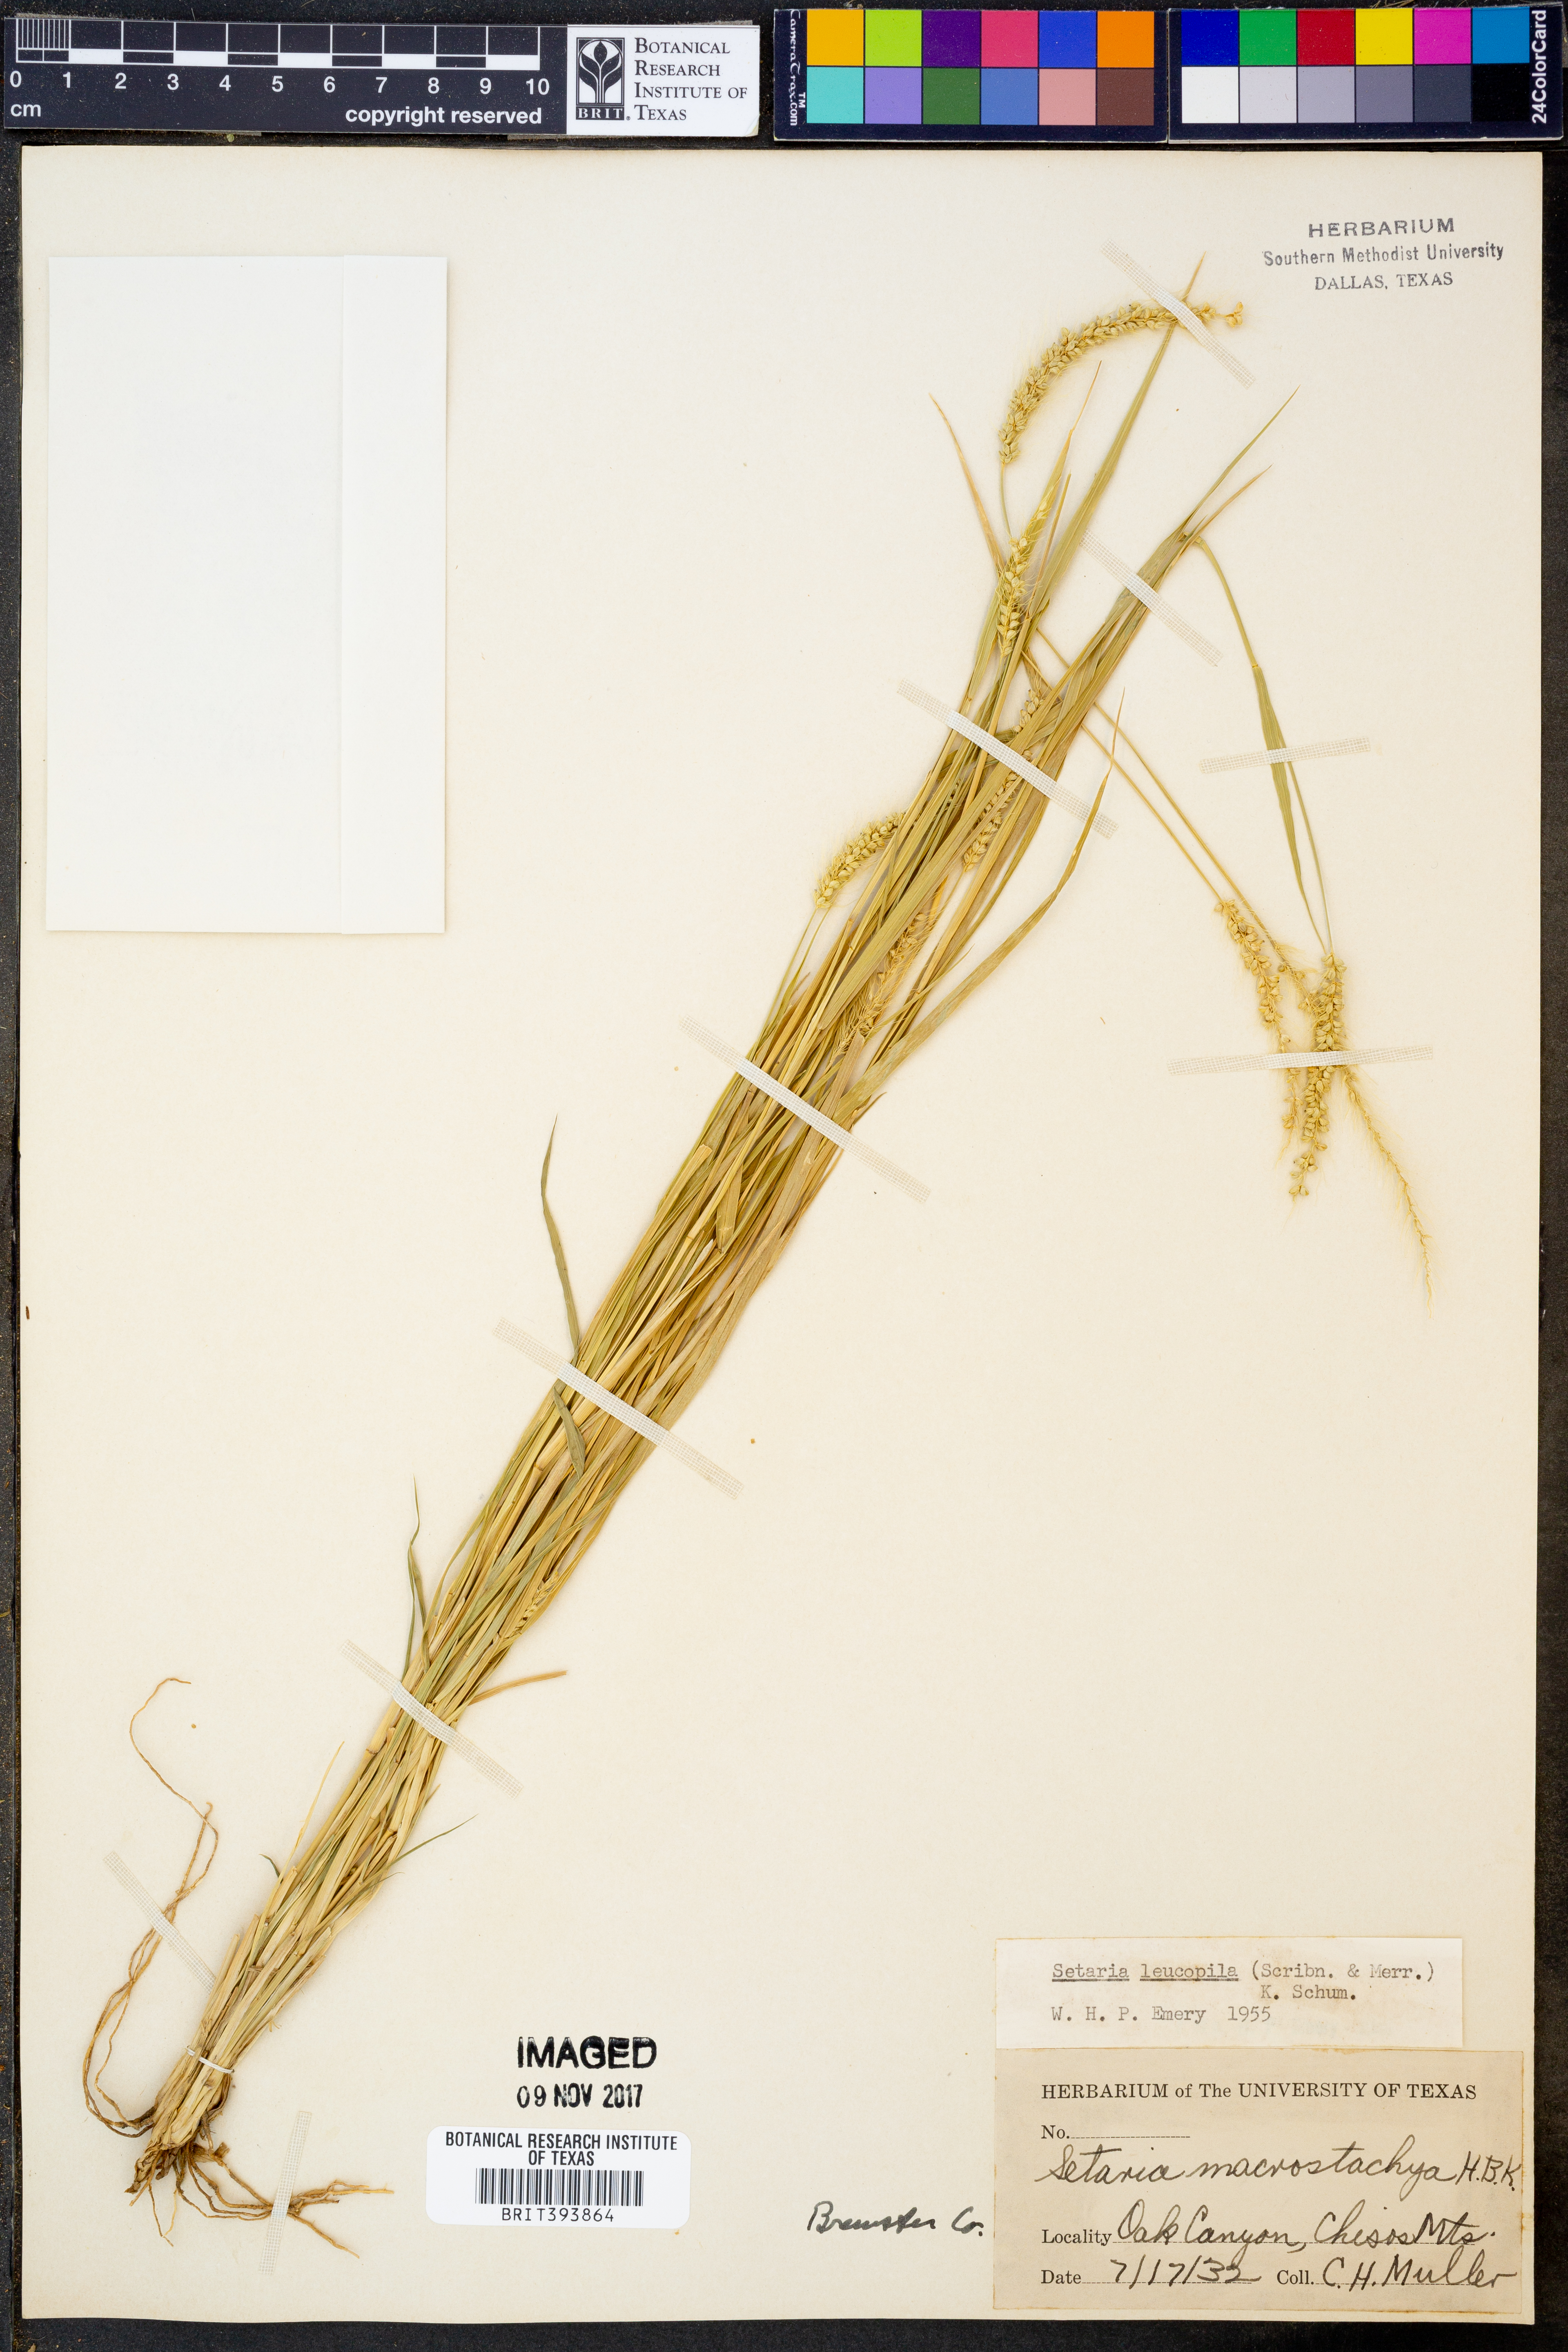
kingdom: Plantae
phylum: Tracheophyta
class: Liliopsida
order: Poales
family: Poaceae
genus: Setaria
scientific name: Setaria leucopila
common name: Plains bristle grass
